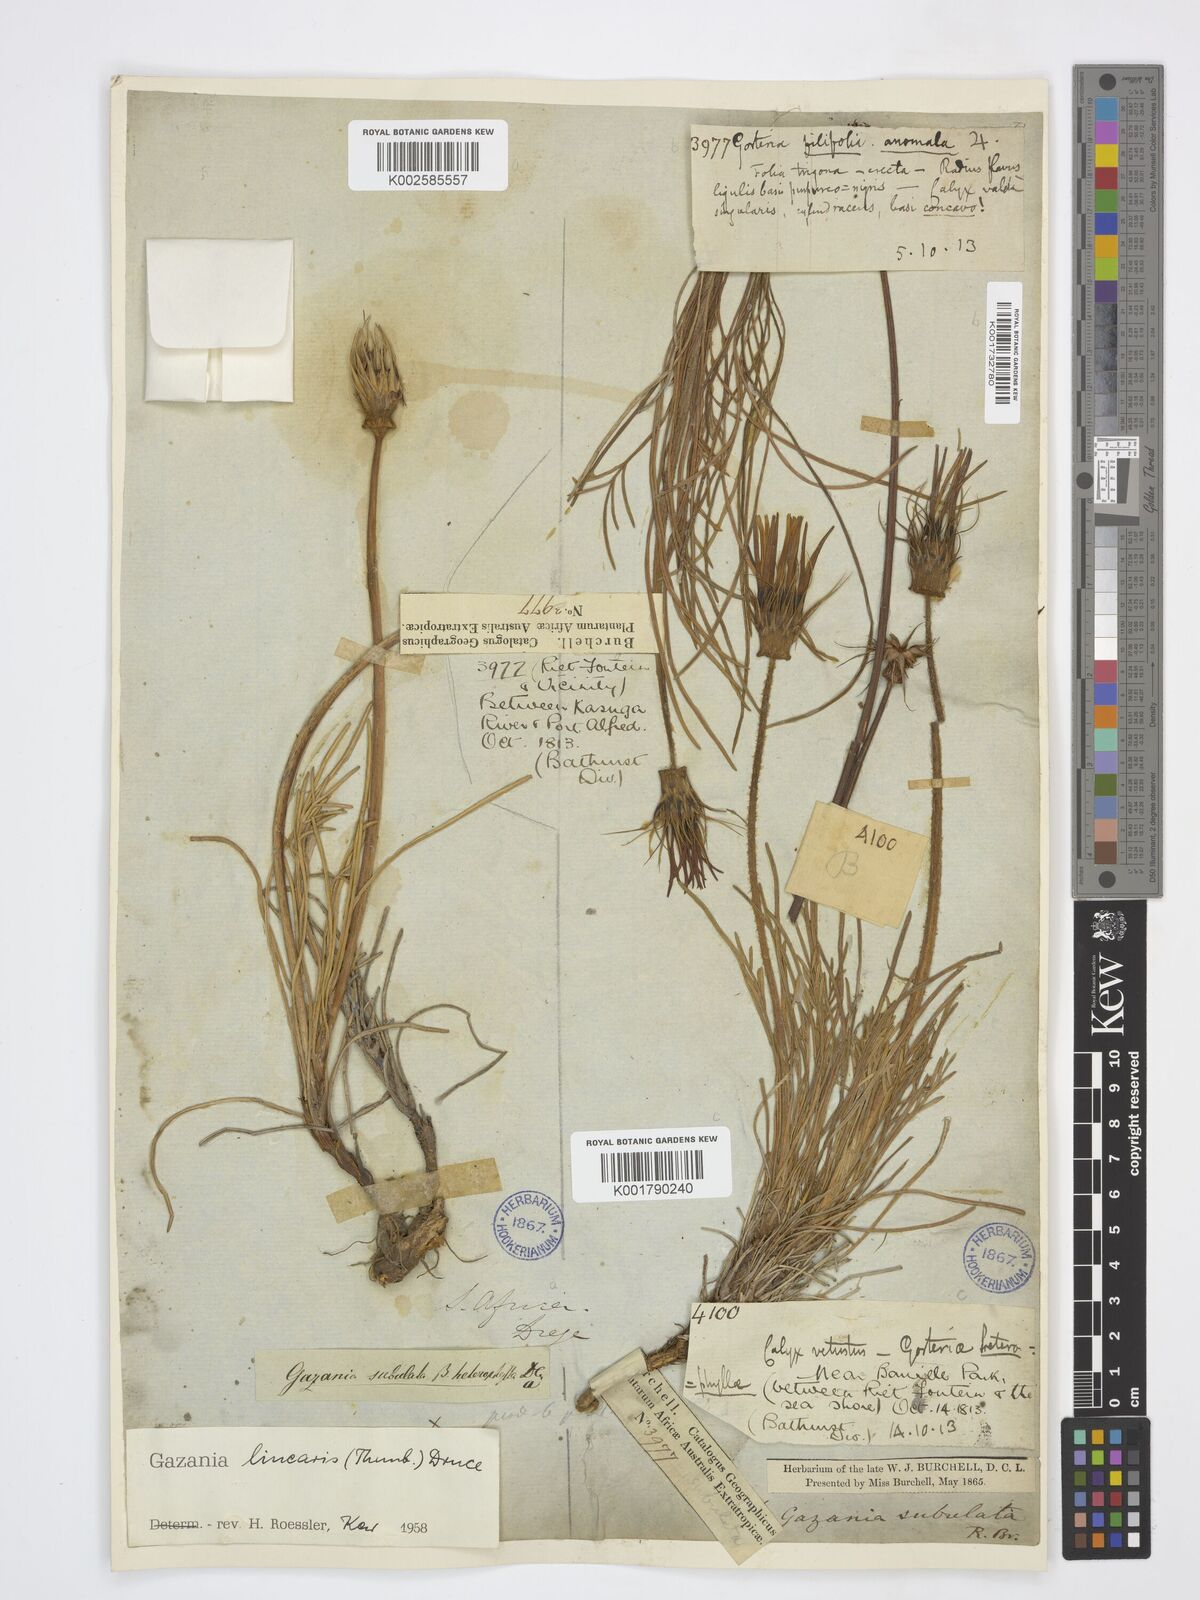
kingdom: Plantae
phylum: Tracheophyta
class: Magnoliopsida
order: Asterales
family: Asteraceae
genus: Gazania
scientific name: Gazania linearis
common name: Treasureflower
